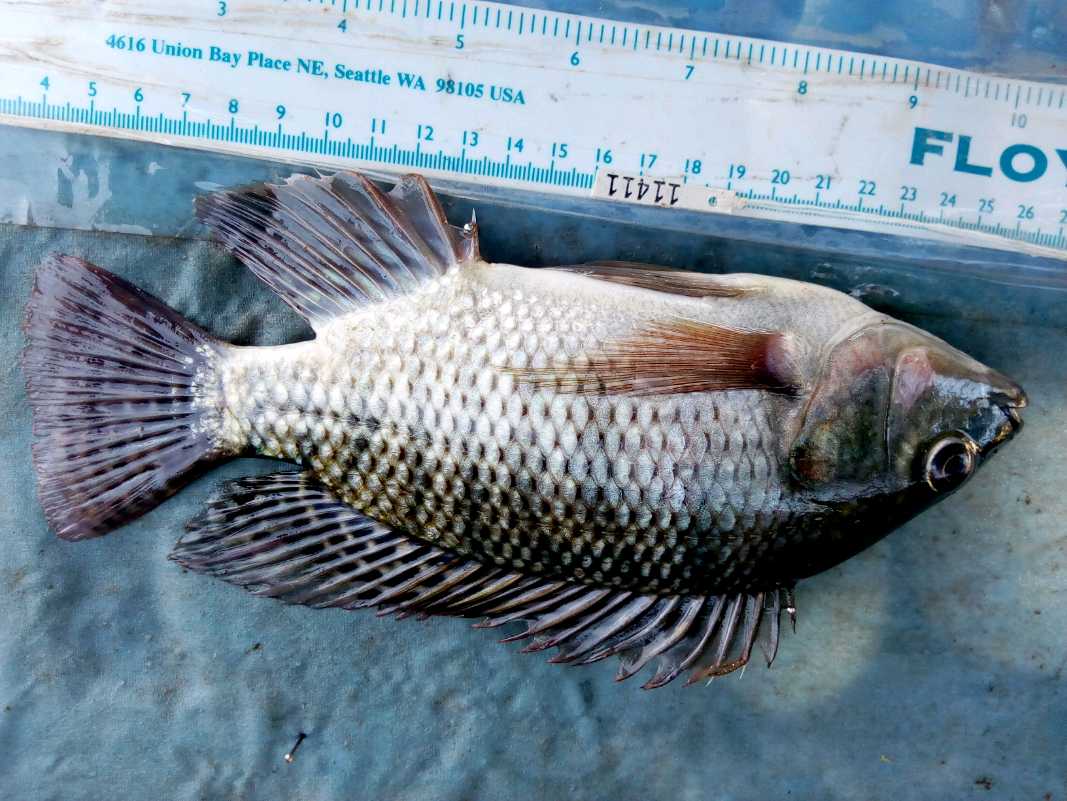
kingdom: Animalia
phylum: Chordata
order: Perciformes
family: Cichlidae
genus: Oreochromis
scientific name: Oreochromis niloticus
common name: Nile tilapia
